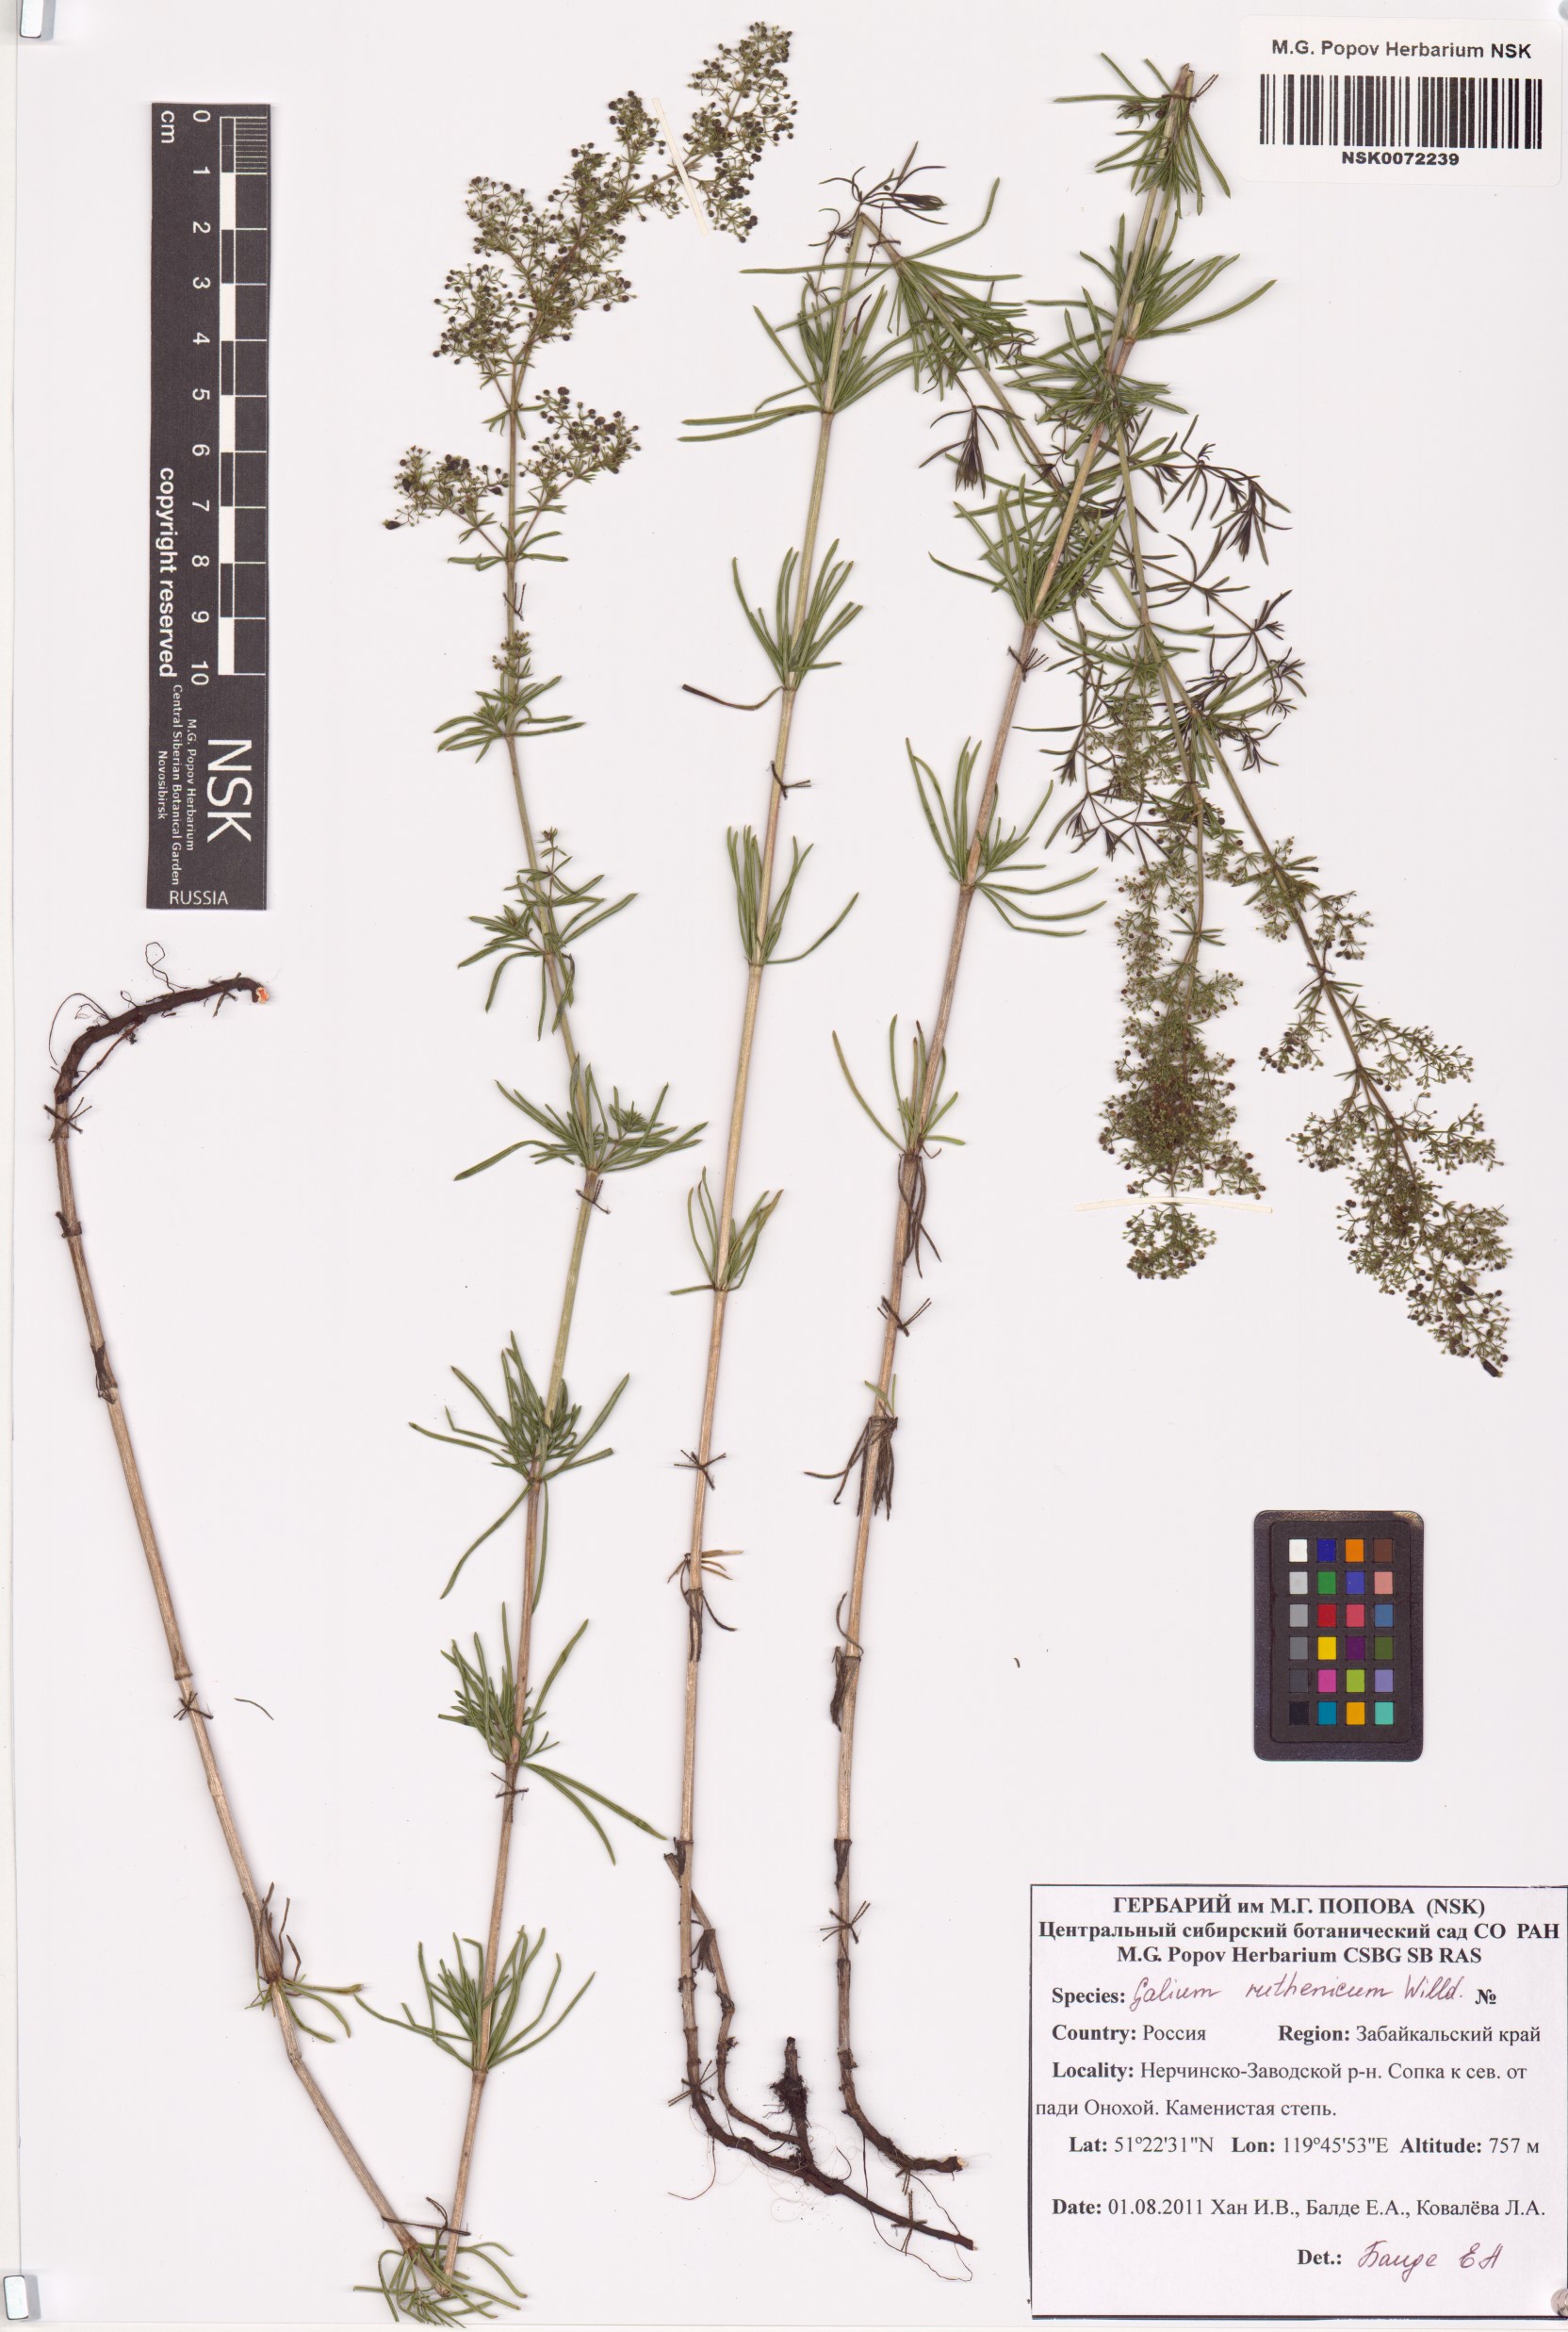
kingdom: Plantae
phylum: Tracheophyta
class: Magnoliopsida
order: Gentianales
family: Rubiaceae
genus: Galium
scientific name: Galium verum
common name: Lady's bedstraw
